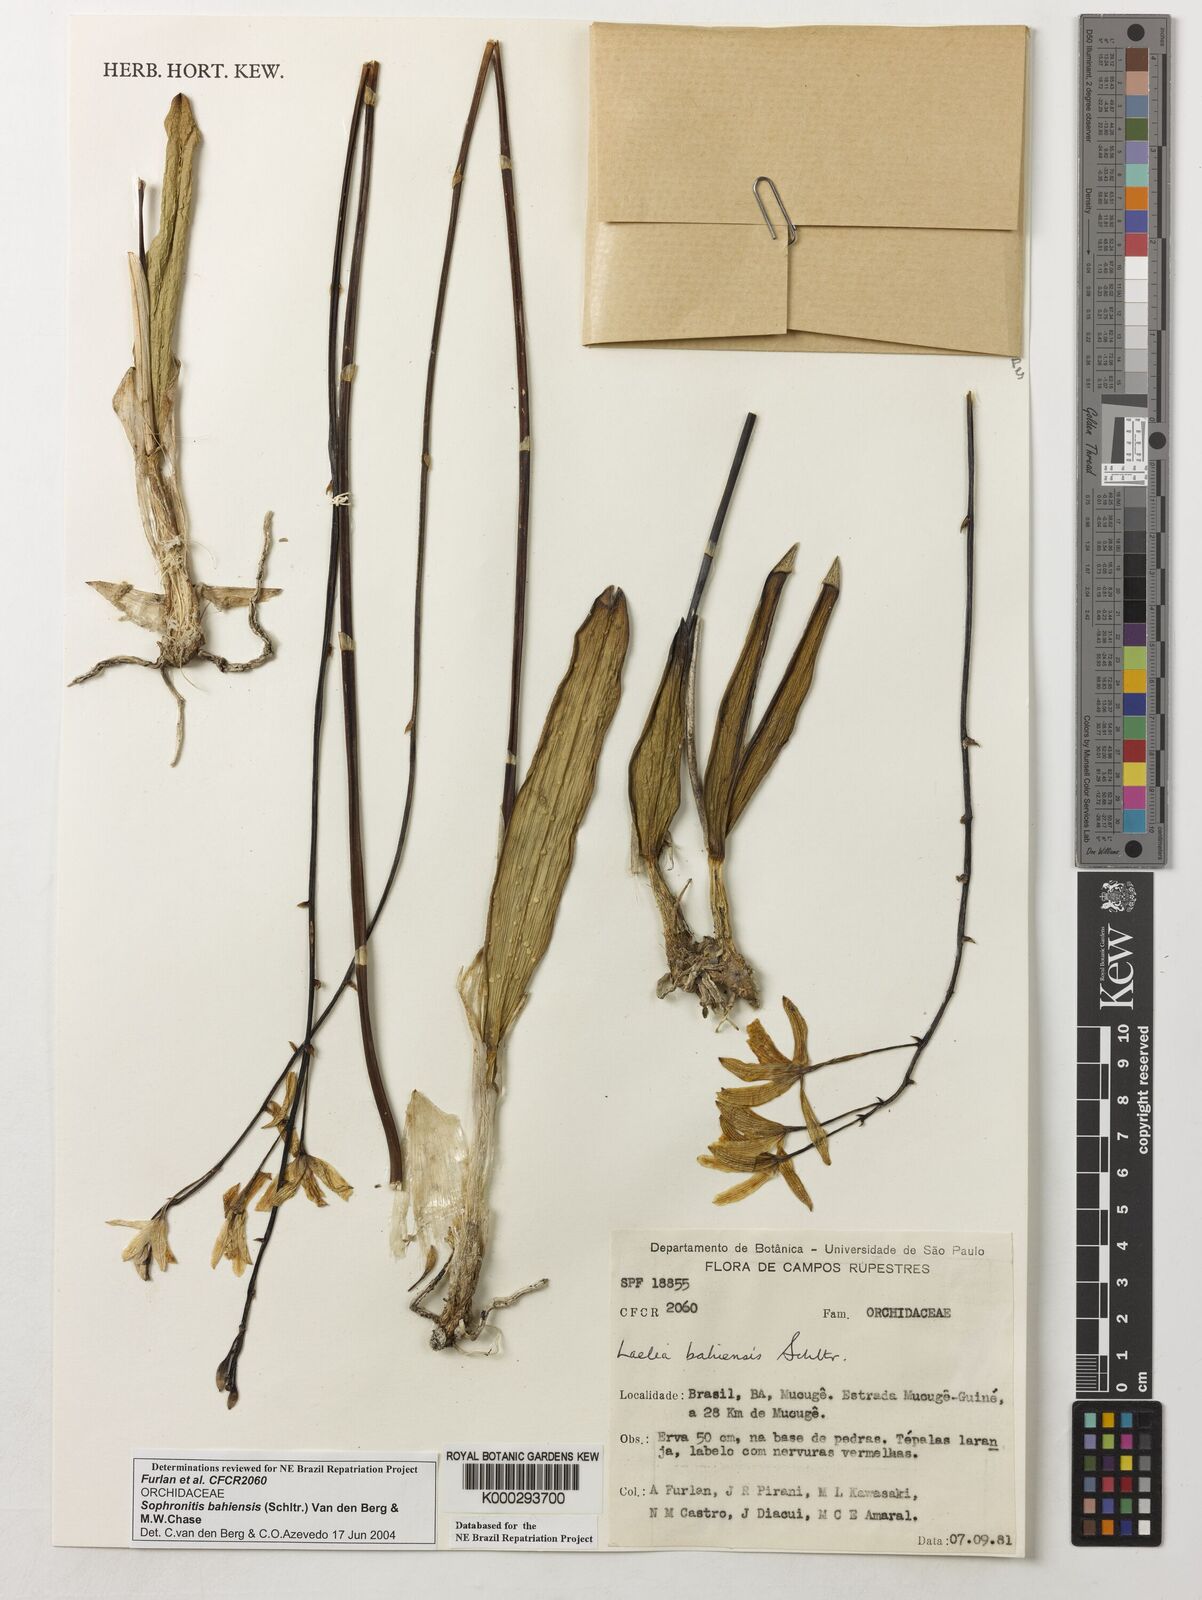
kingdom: Plantae
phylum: Tracheophyta
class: Liliopsida
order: Asparagales
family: Orchidaceae
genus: Cattleya
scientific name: Cattleya luetzelburgii
